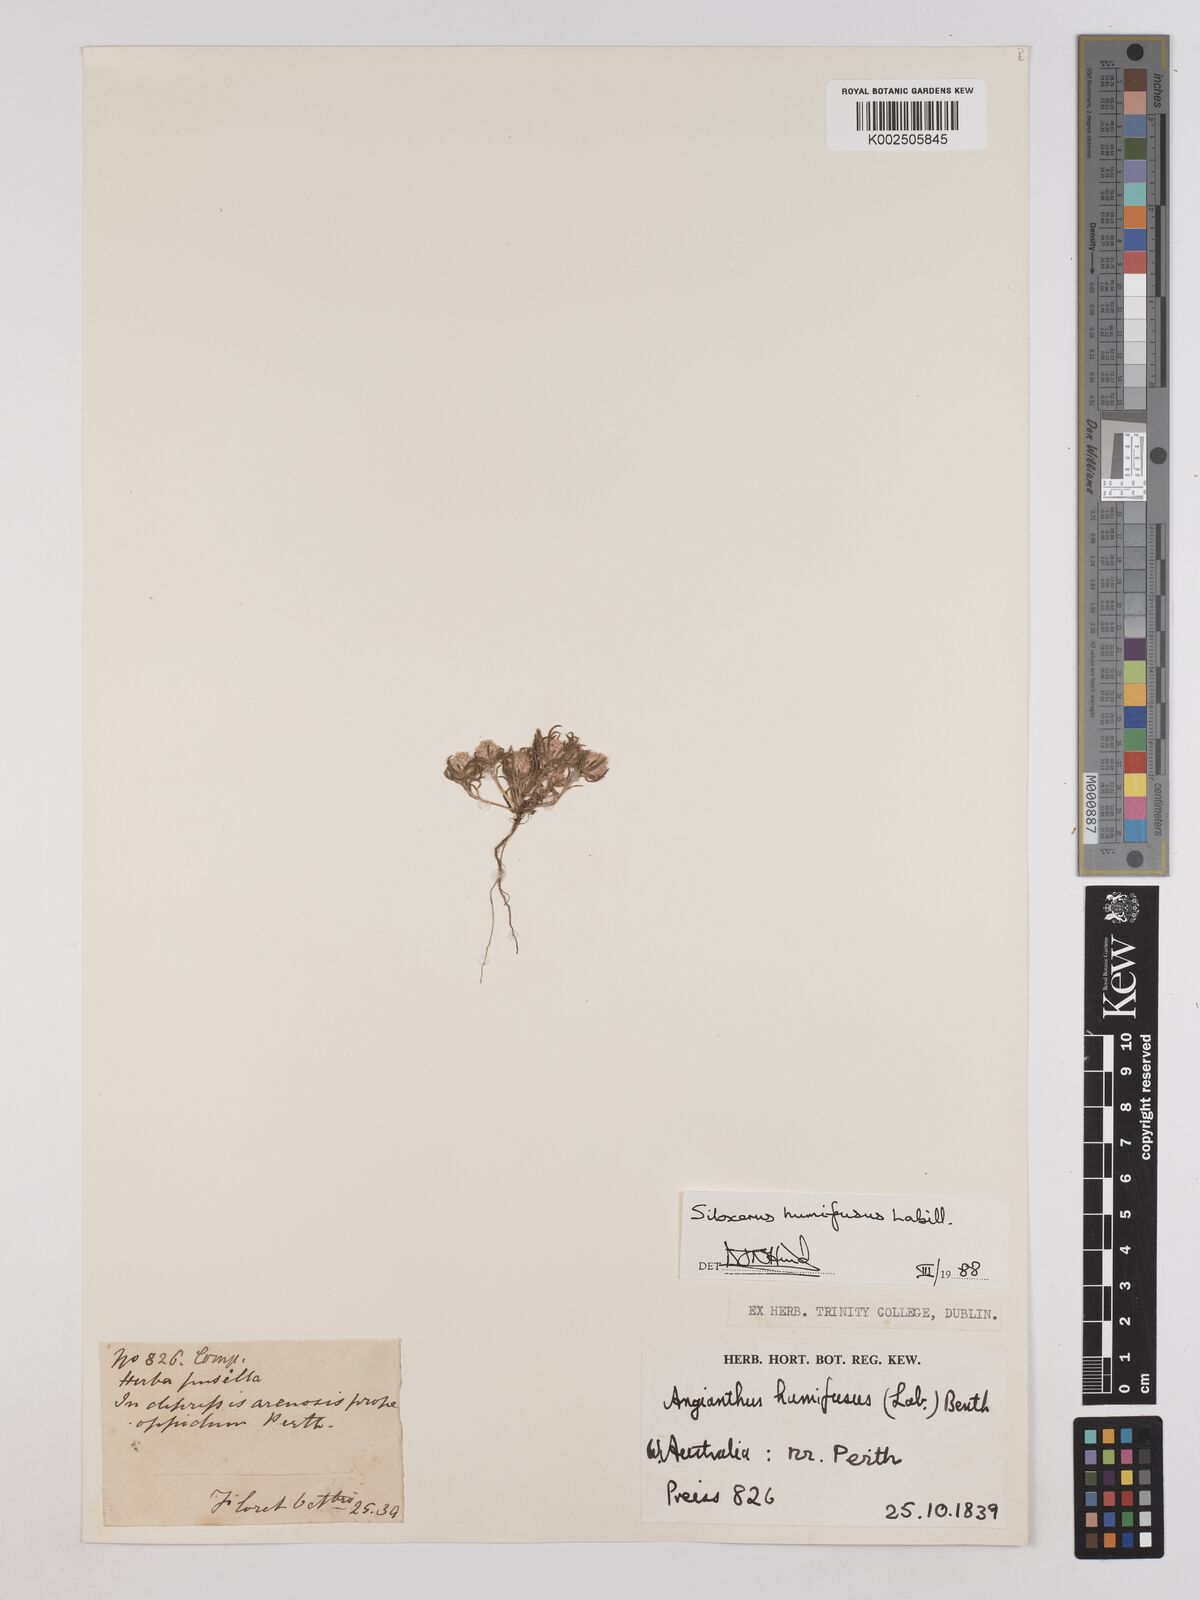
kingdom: Plantae
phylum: Tracheophyta
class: Magnoliopsida
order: Asterales
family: Asteraceae
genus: Siloxerus
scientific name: Siloxerus humifusus
